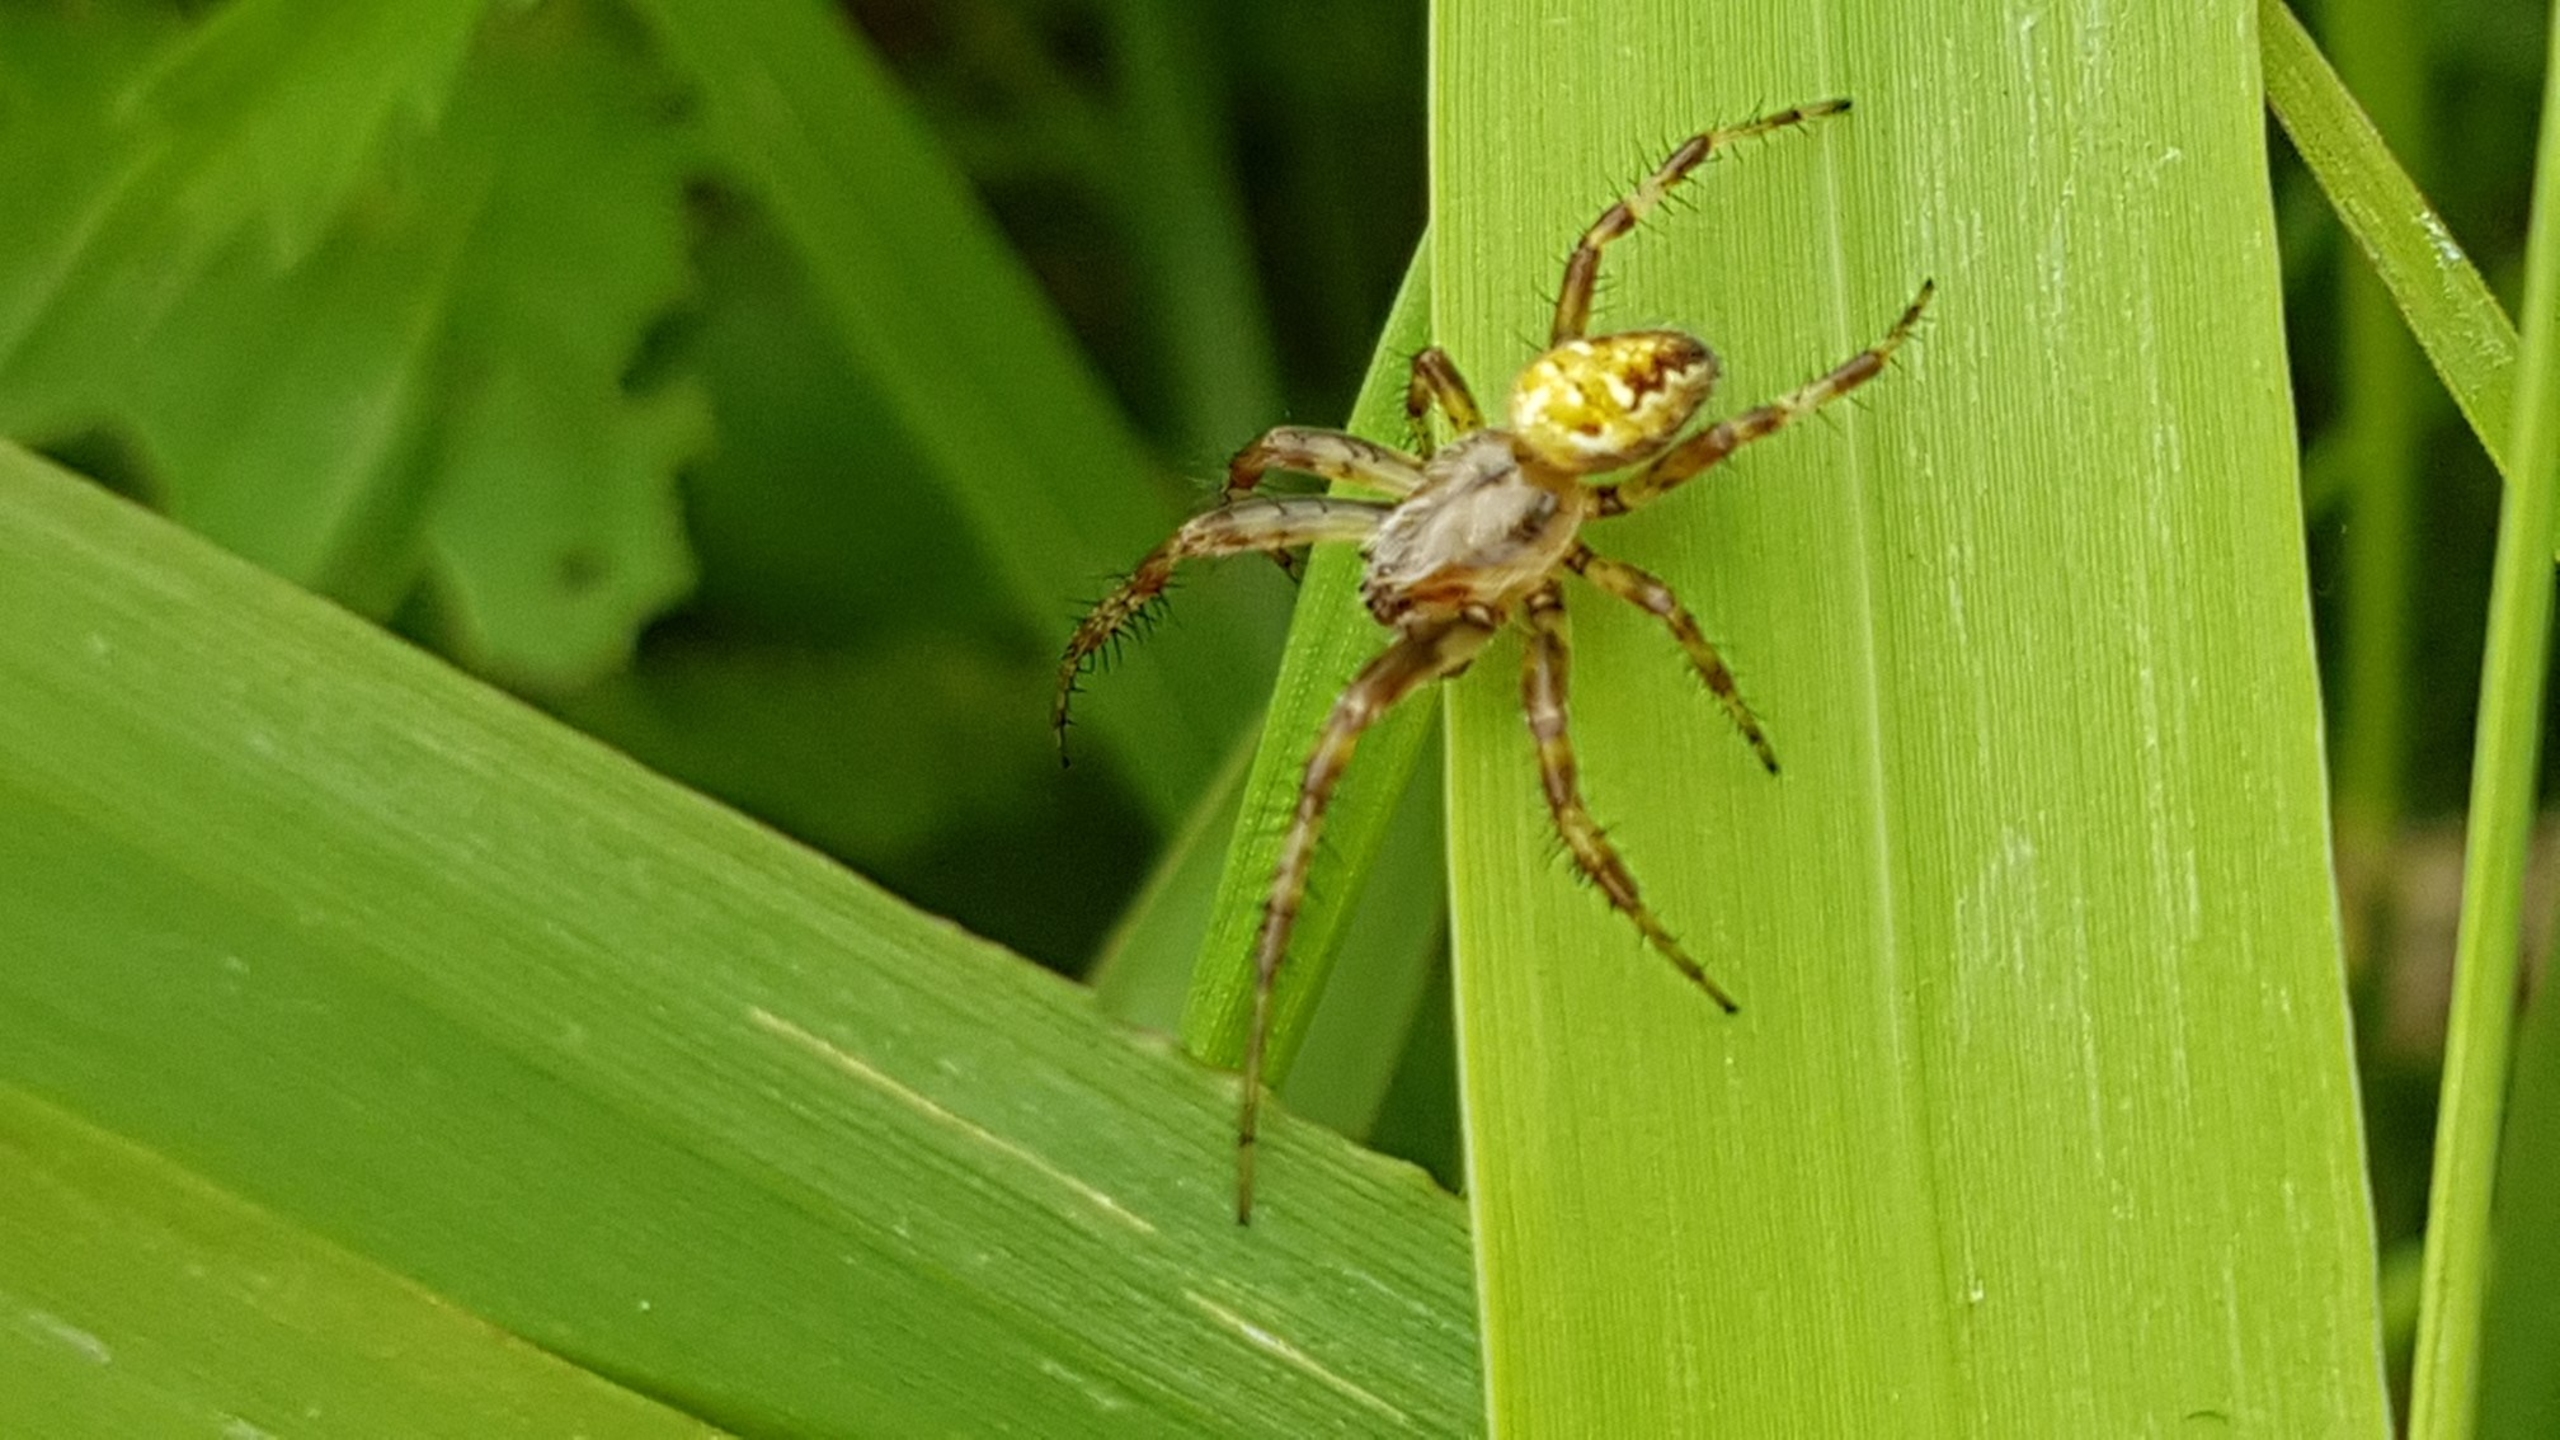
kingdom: Animalia
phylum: Arthropoda
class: Arachnida
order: Araneae
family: Araneidae
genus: Araneus
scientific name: Araneus quadratus
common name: Kvadratedderkop
